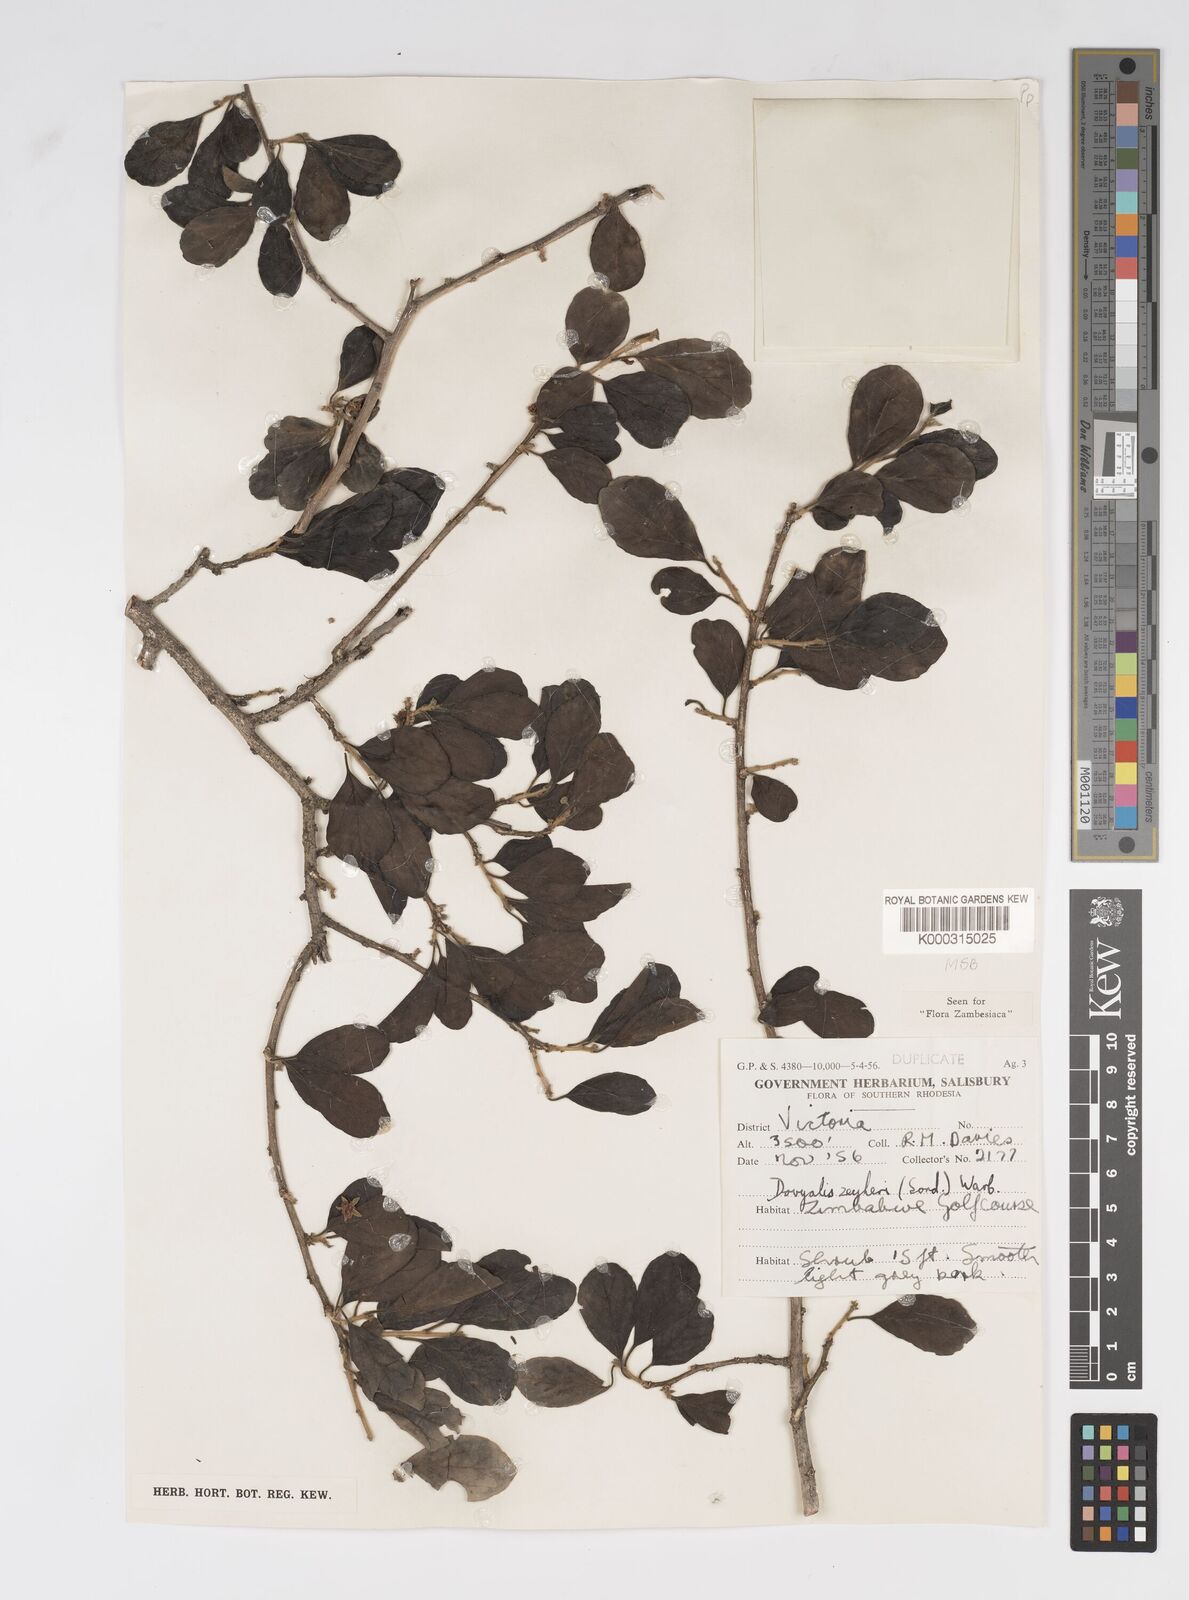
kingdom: Plantae
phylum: Tracheophyta
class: Magnoliopsida
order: Malpighiales
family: Salicaceae
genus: Dovyalis
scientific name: Dovyalis zeyheri
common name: Apricot sourberry
